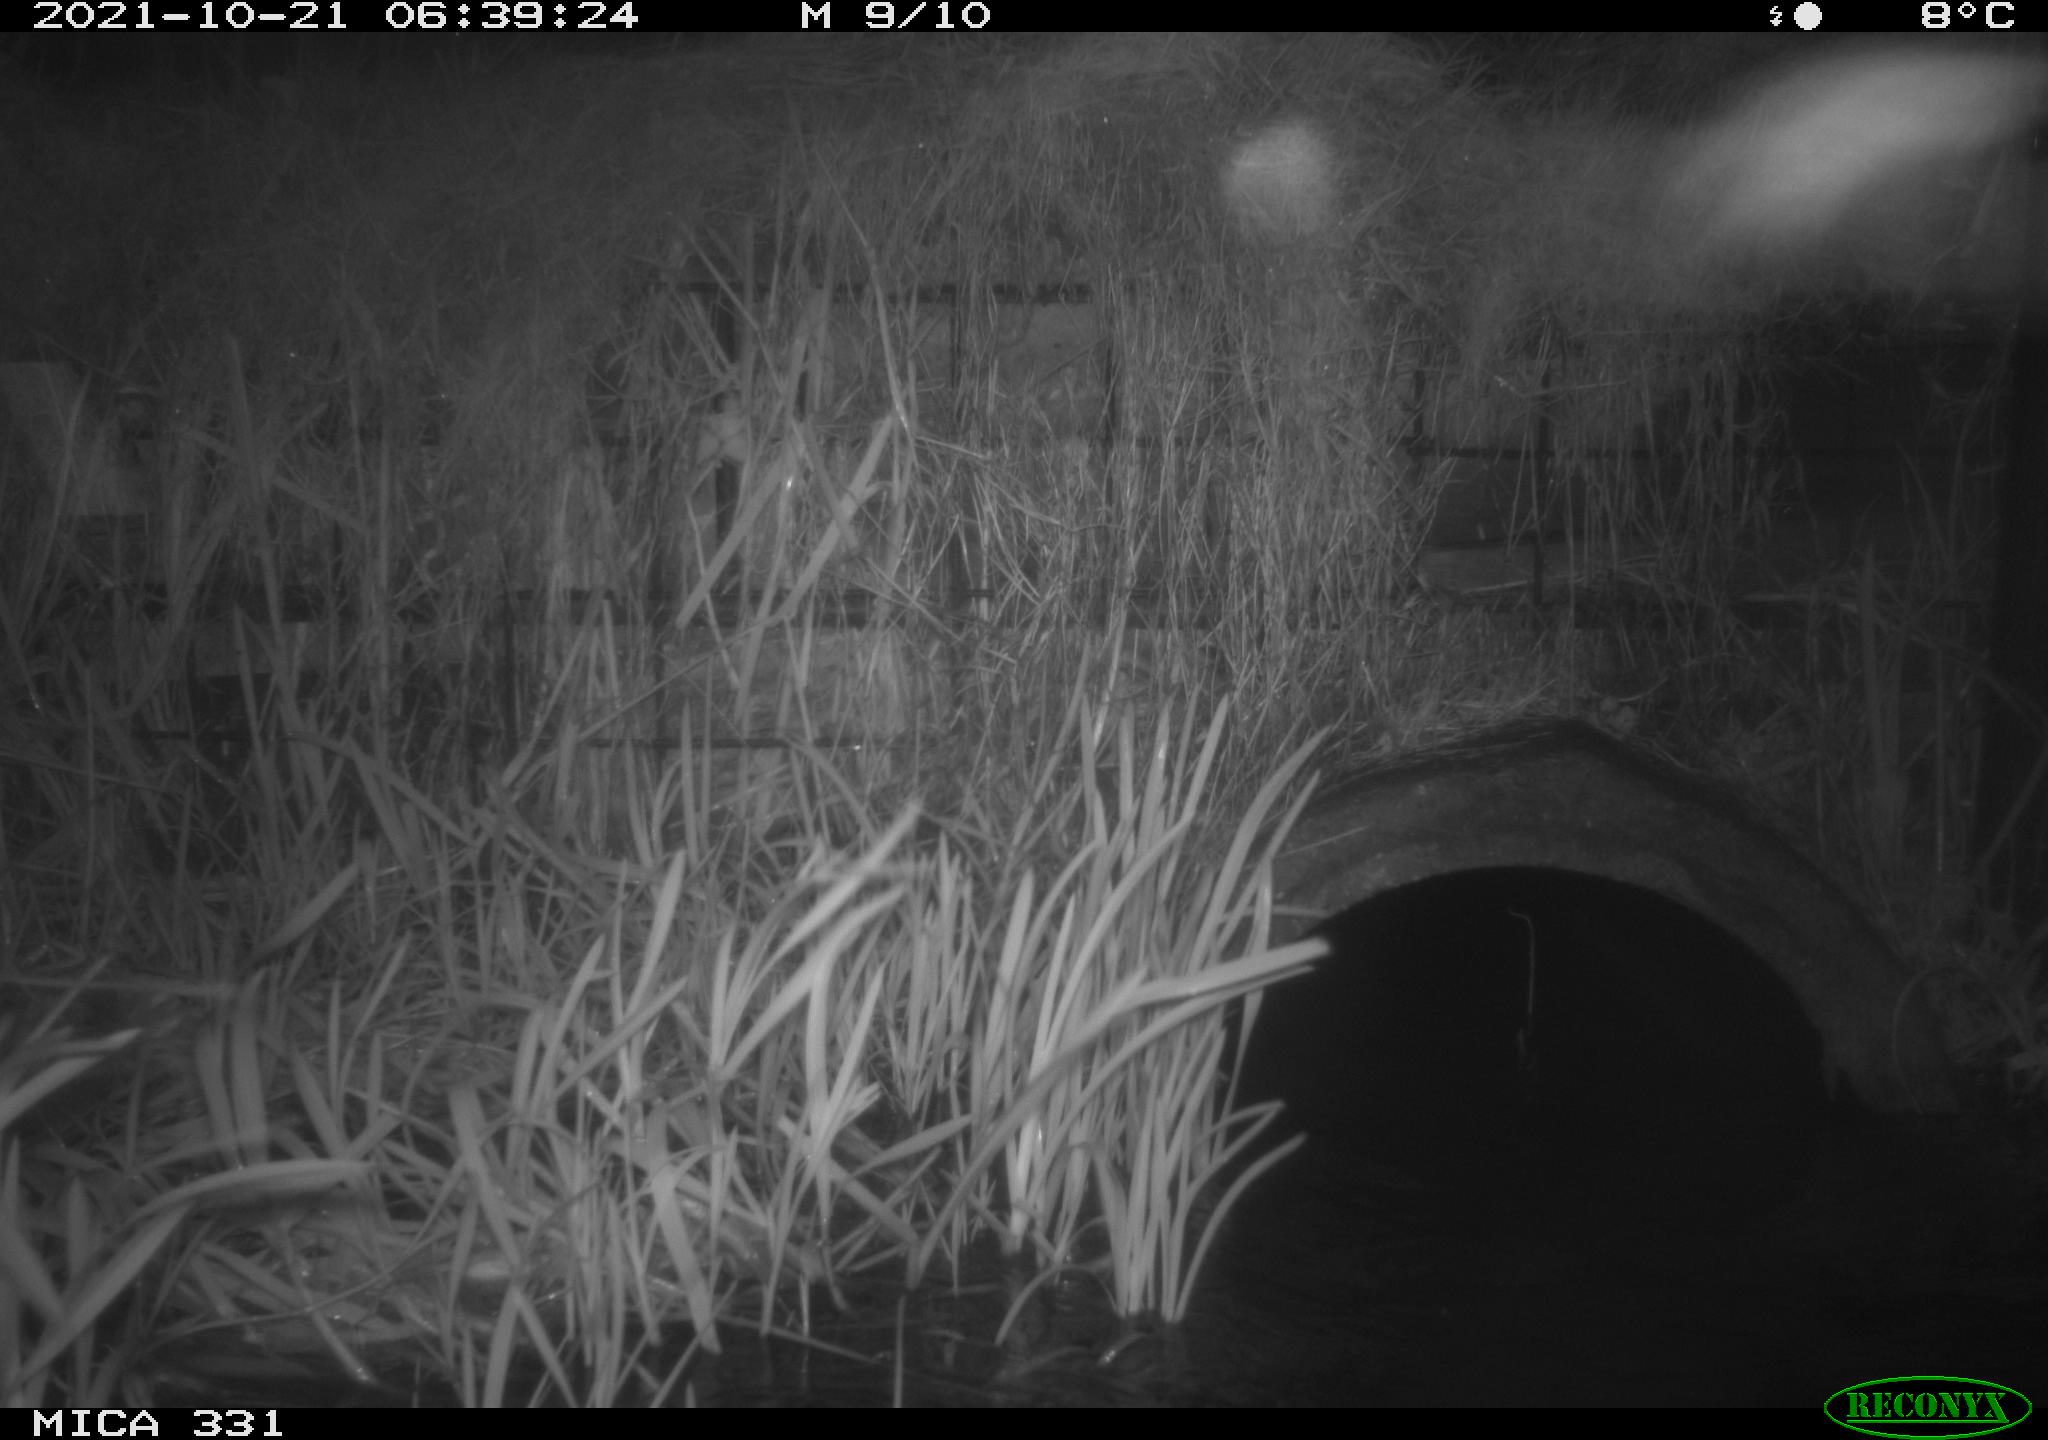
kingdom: Animalia
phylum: Chordata
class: Mammalia
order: Rodentia
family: Muridae
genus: Rattus
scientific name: Rattus norvegicus
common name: Brown rat
